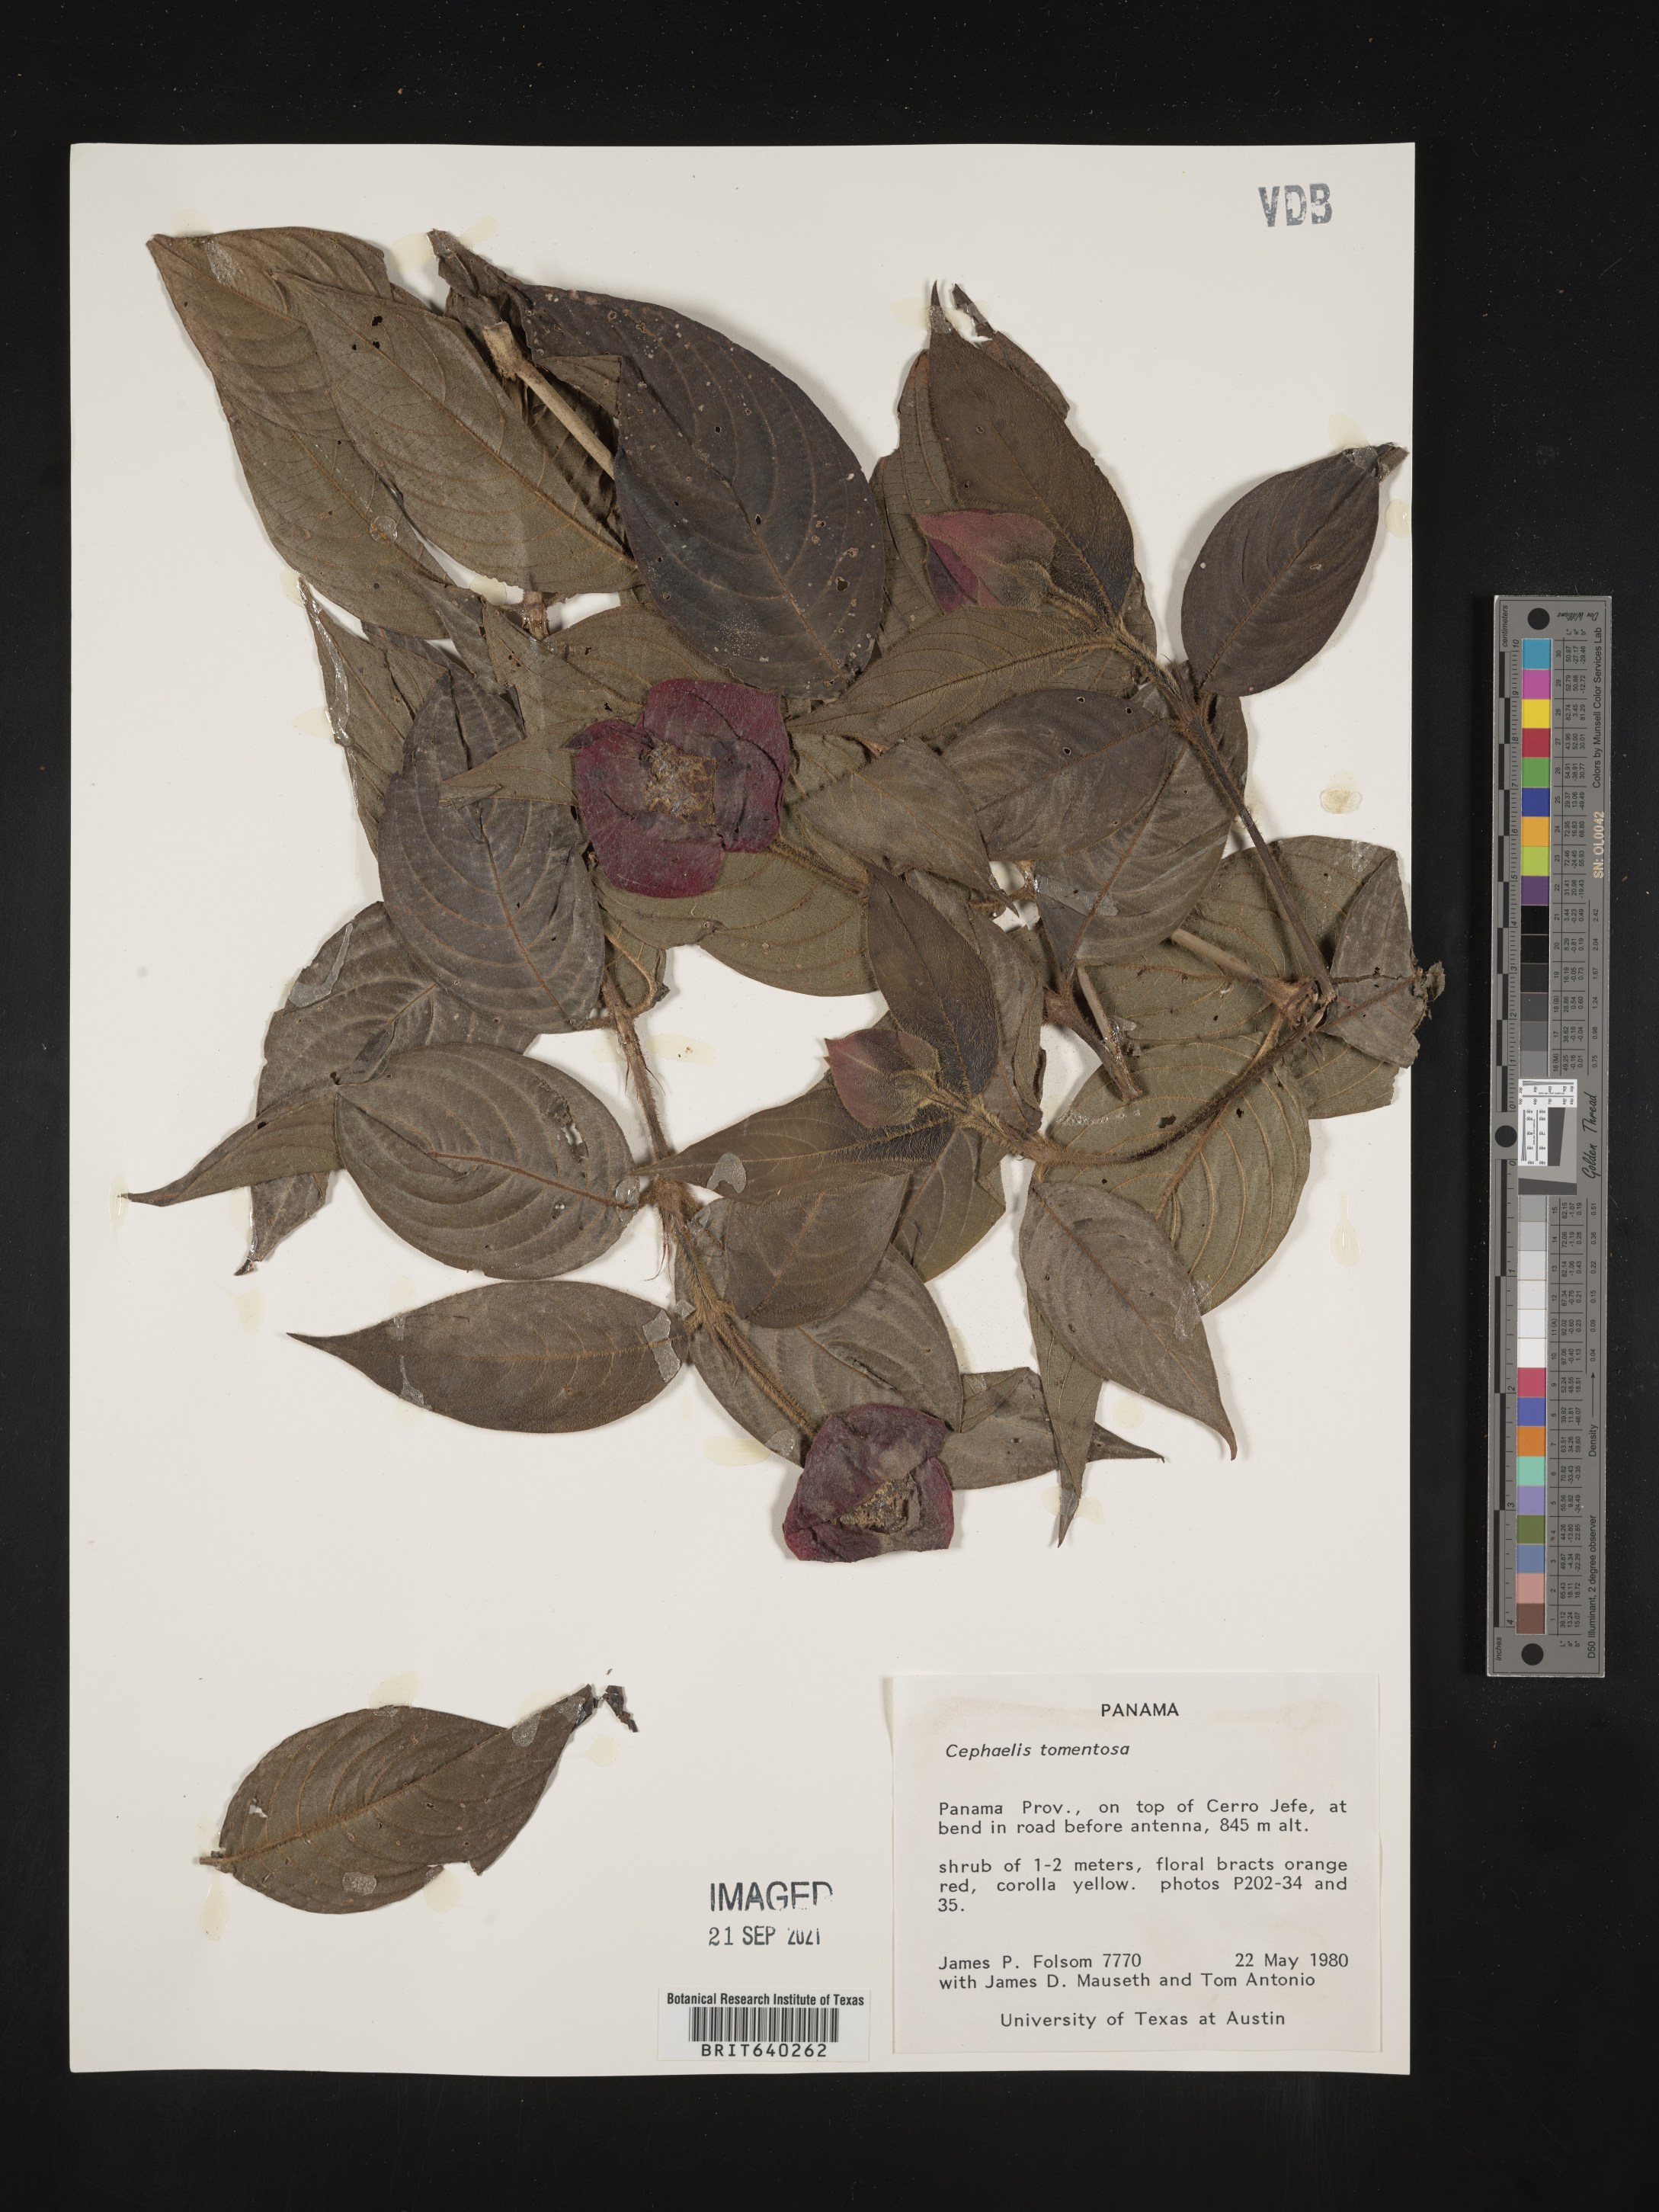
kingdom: Plantae
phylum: Tracheophyta
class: Magnoliopsida
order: Gentianales
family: Rubiaceae
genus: Psychotria
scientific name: Psychotria
